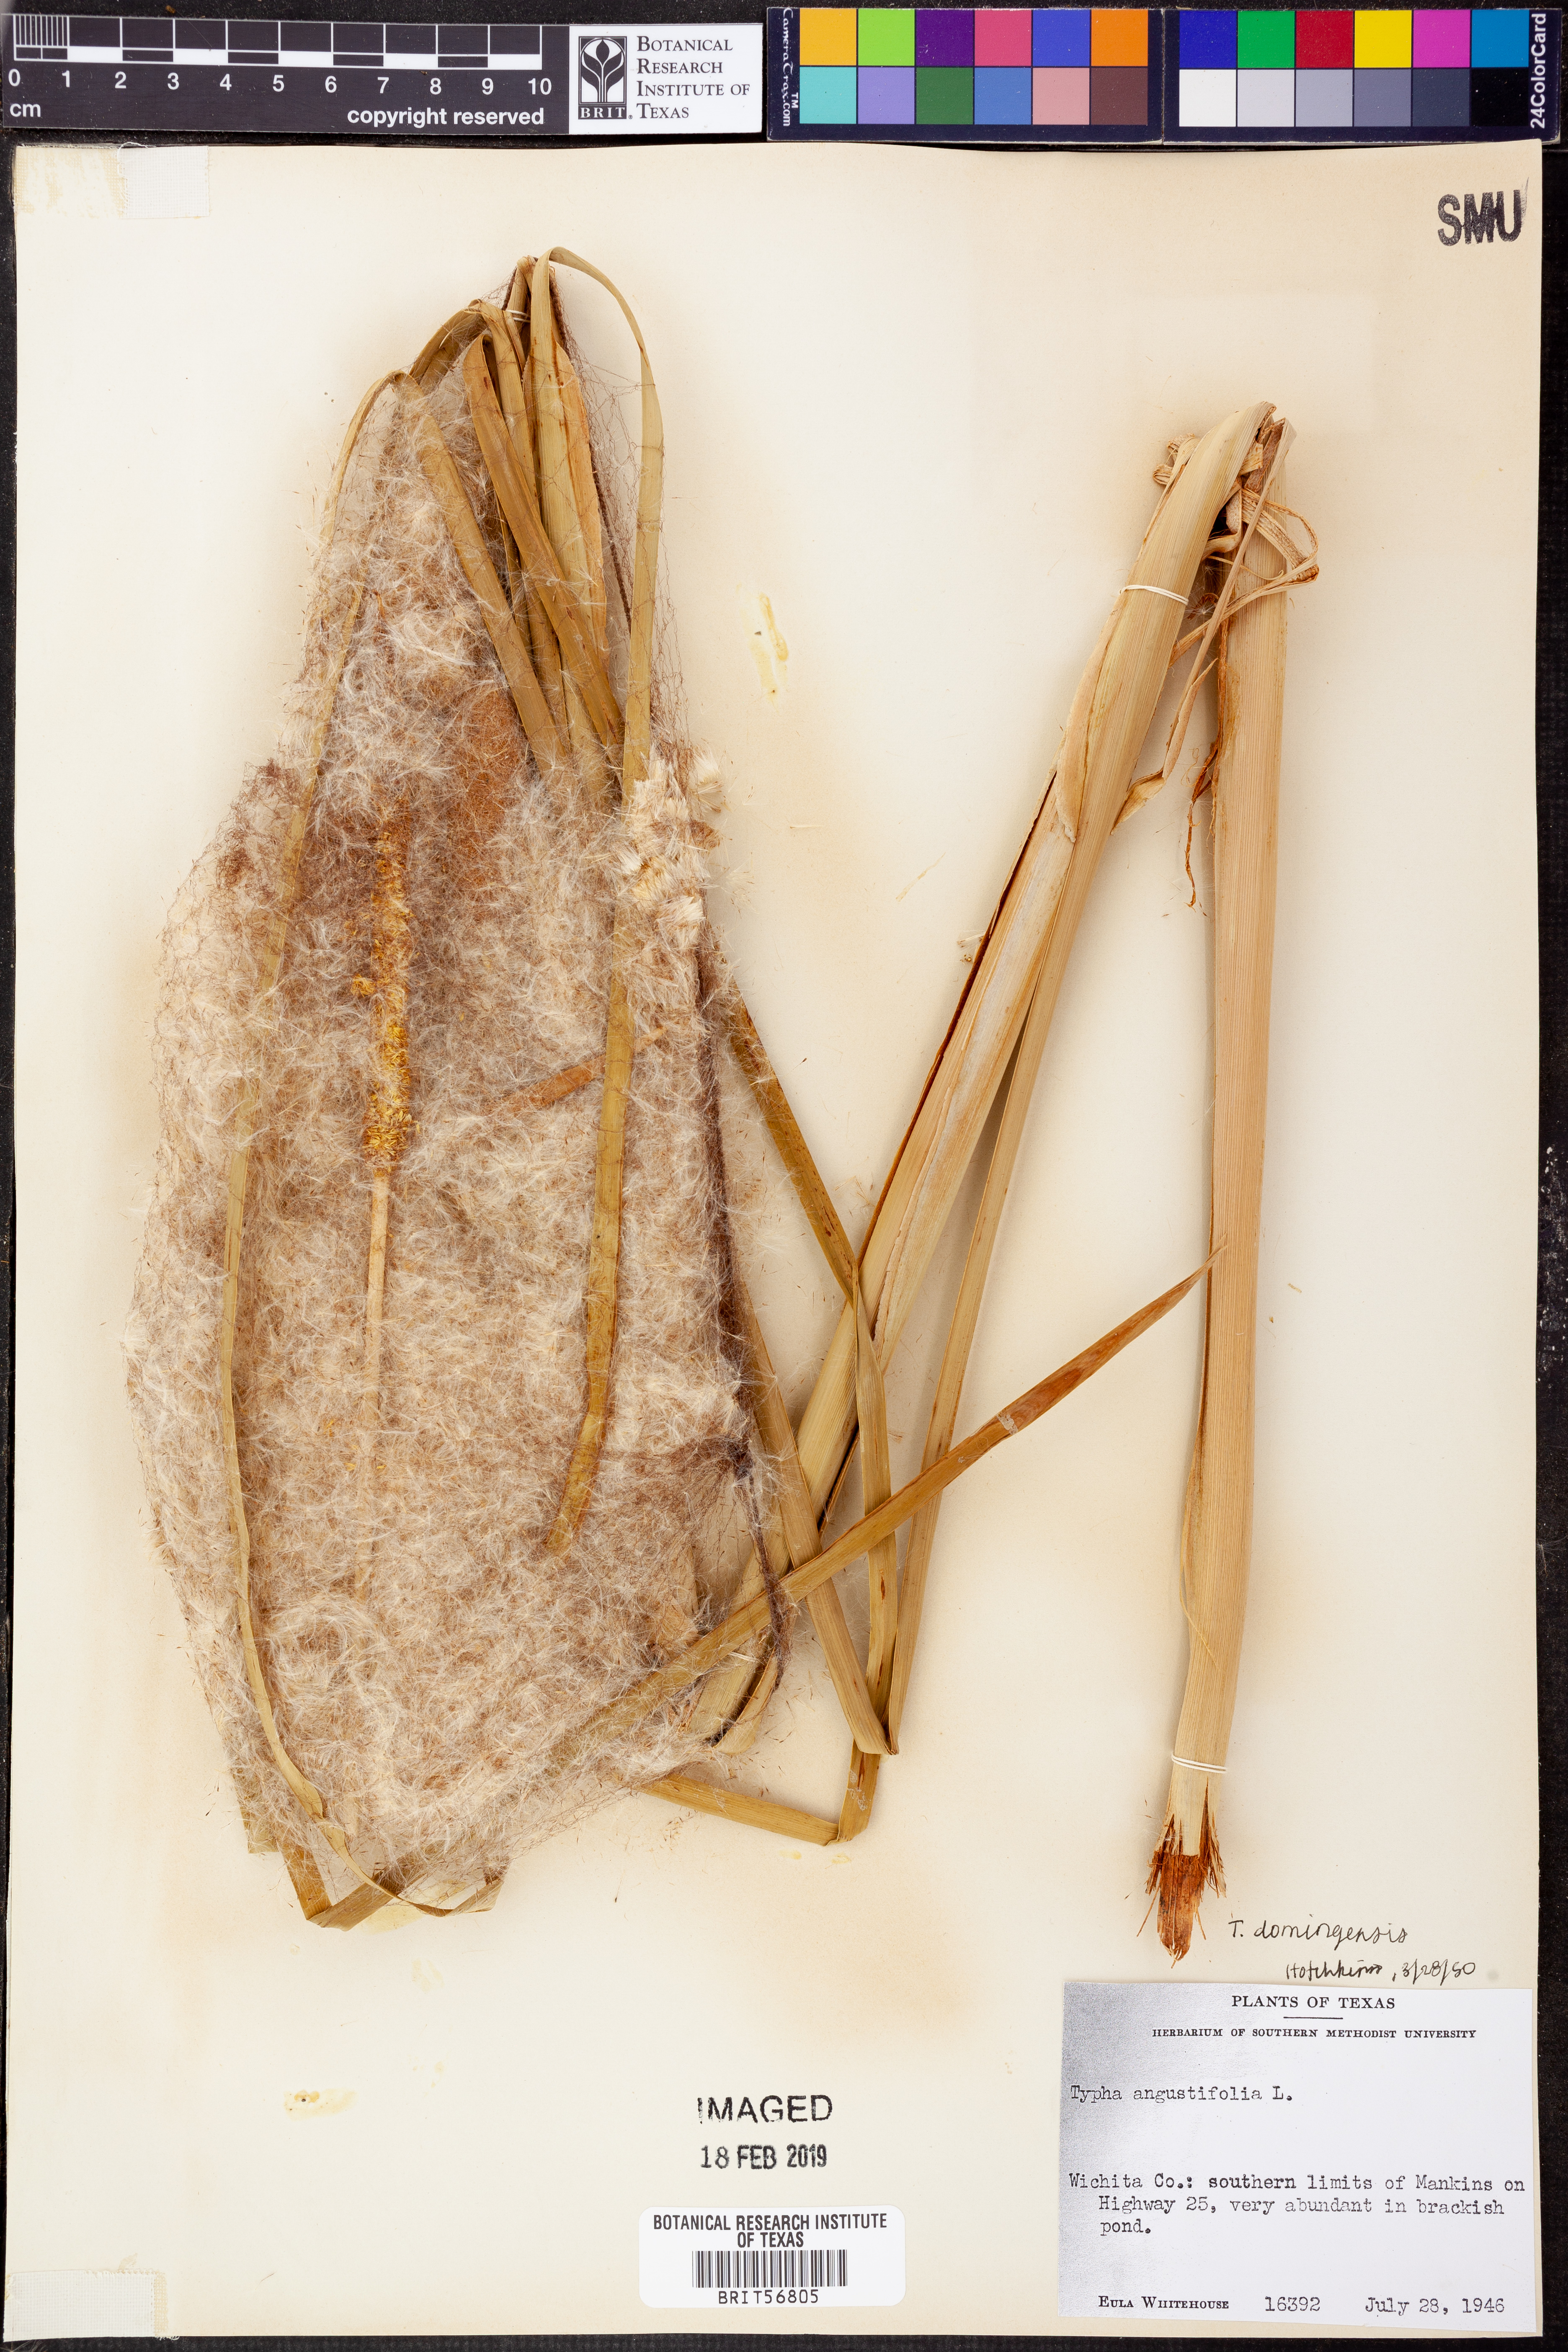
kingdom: Plantae
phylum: Tracheophyta
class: Liliopsida
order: Poales
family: Typhaceae
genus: Typha
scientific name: Typha angustifolia
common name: Lesser bulrush
